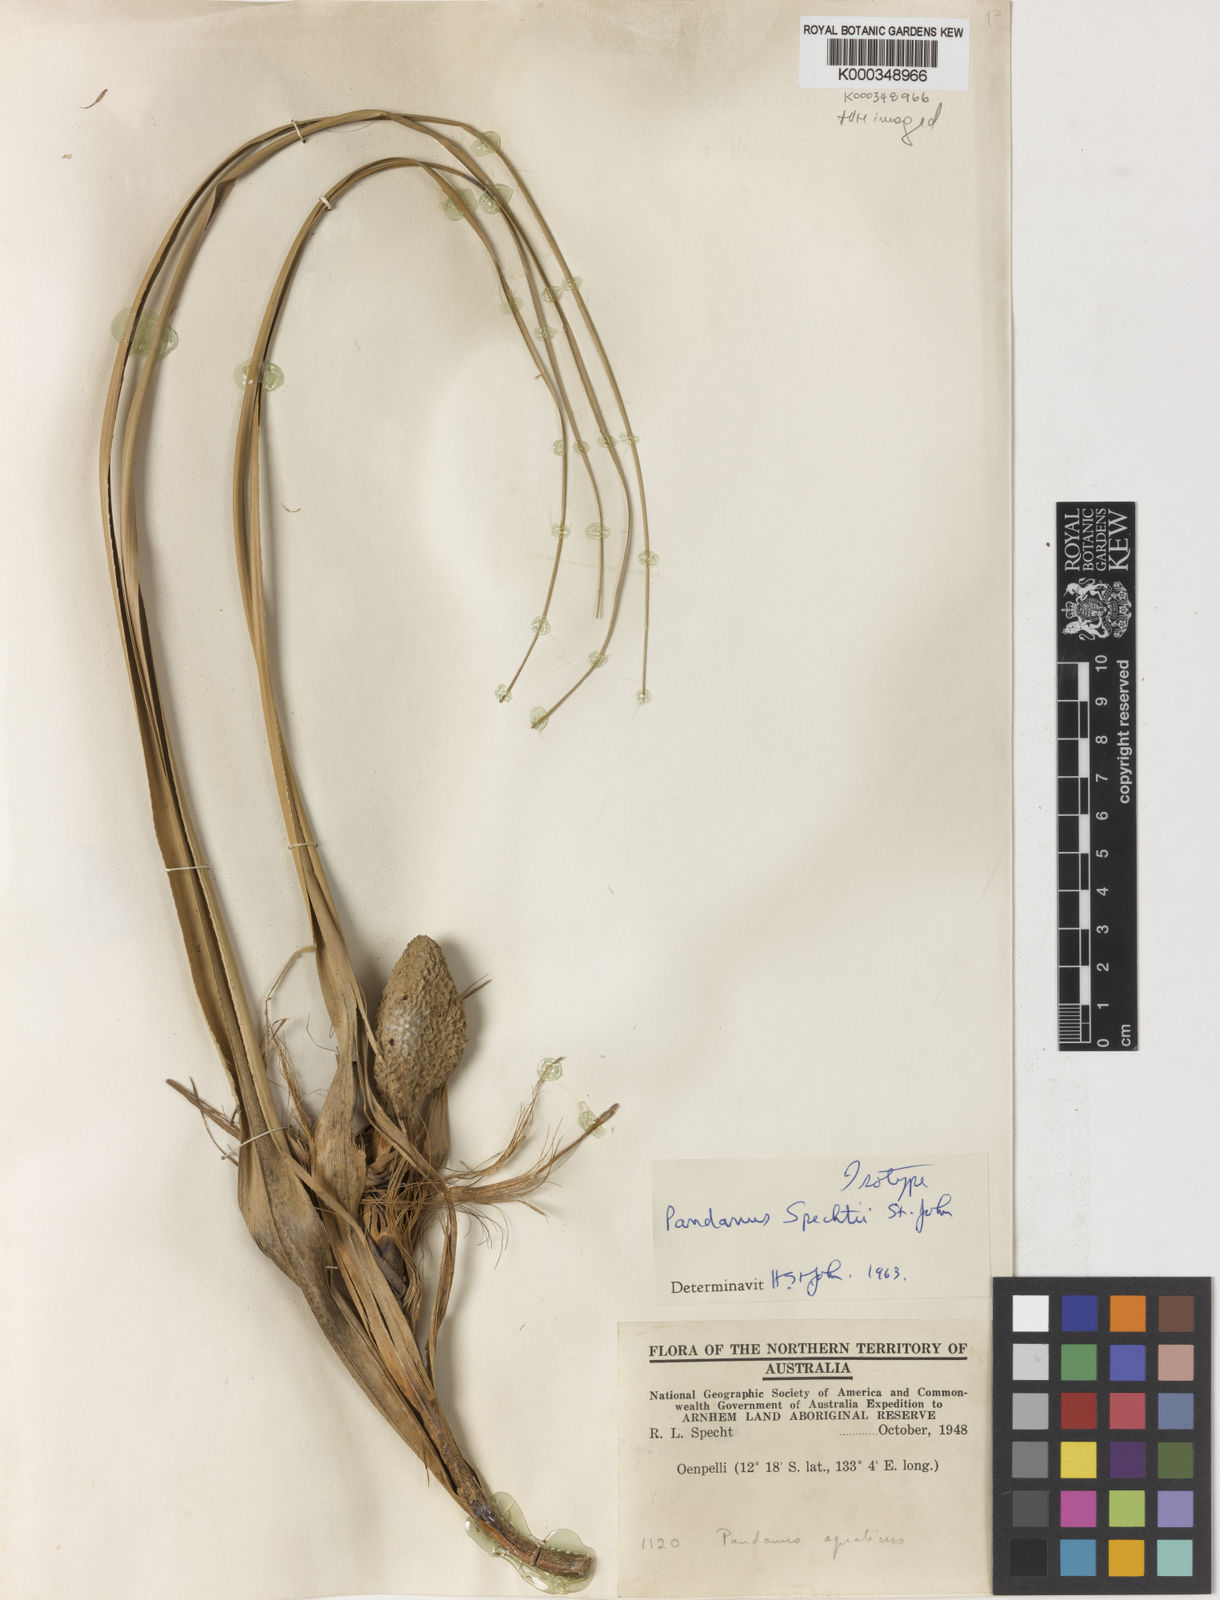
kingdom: Plantae
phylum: Tracheophyta
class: Liliopsida
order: Pandanales
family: Pandanaceae
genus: Pandanus
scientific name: Pandanus aquaticus
